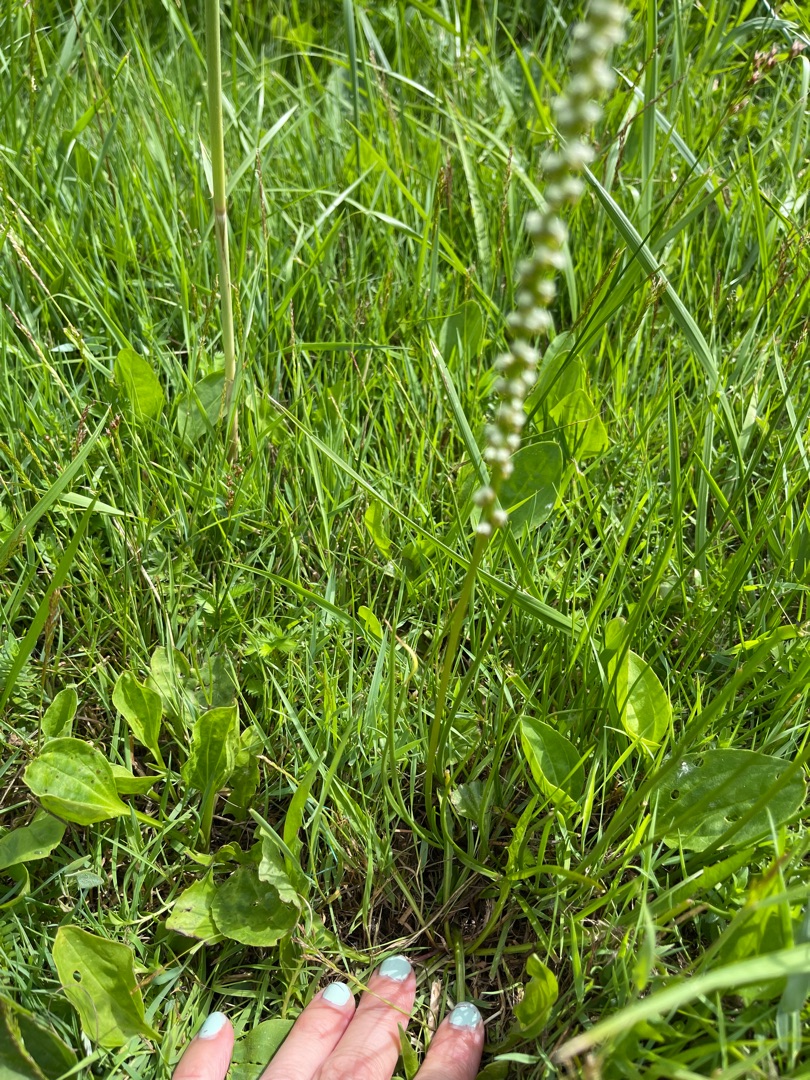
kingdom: Plantae
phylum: Tracheophyta
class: Liliopsida
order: Alismatales
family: Juncaginaceae
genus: Triglochin
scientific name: Triglochin maritima
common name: Strand-trehage
